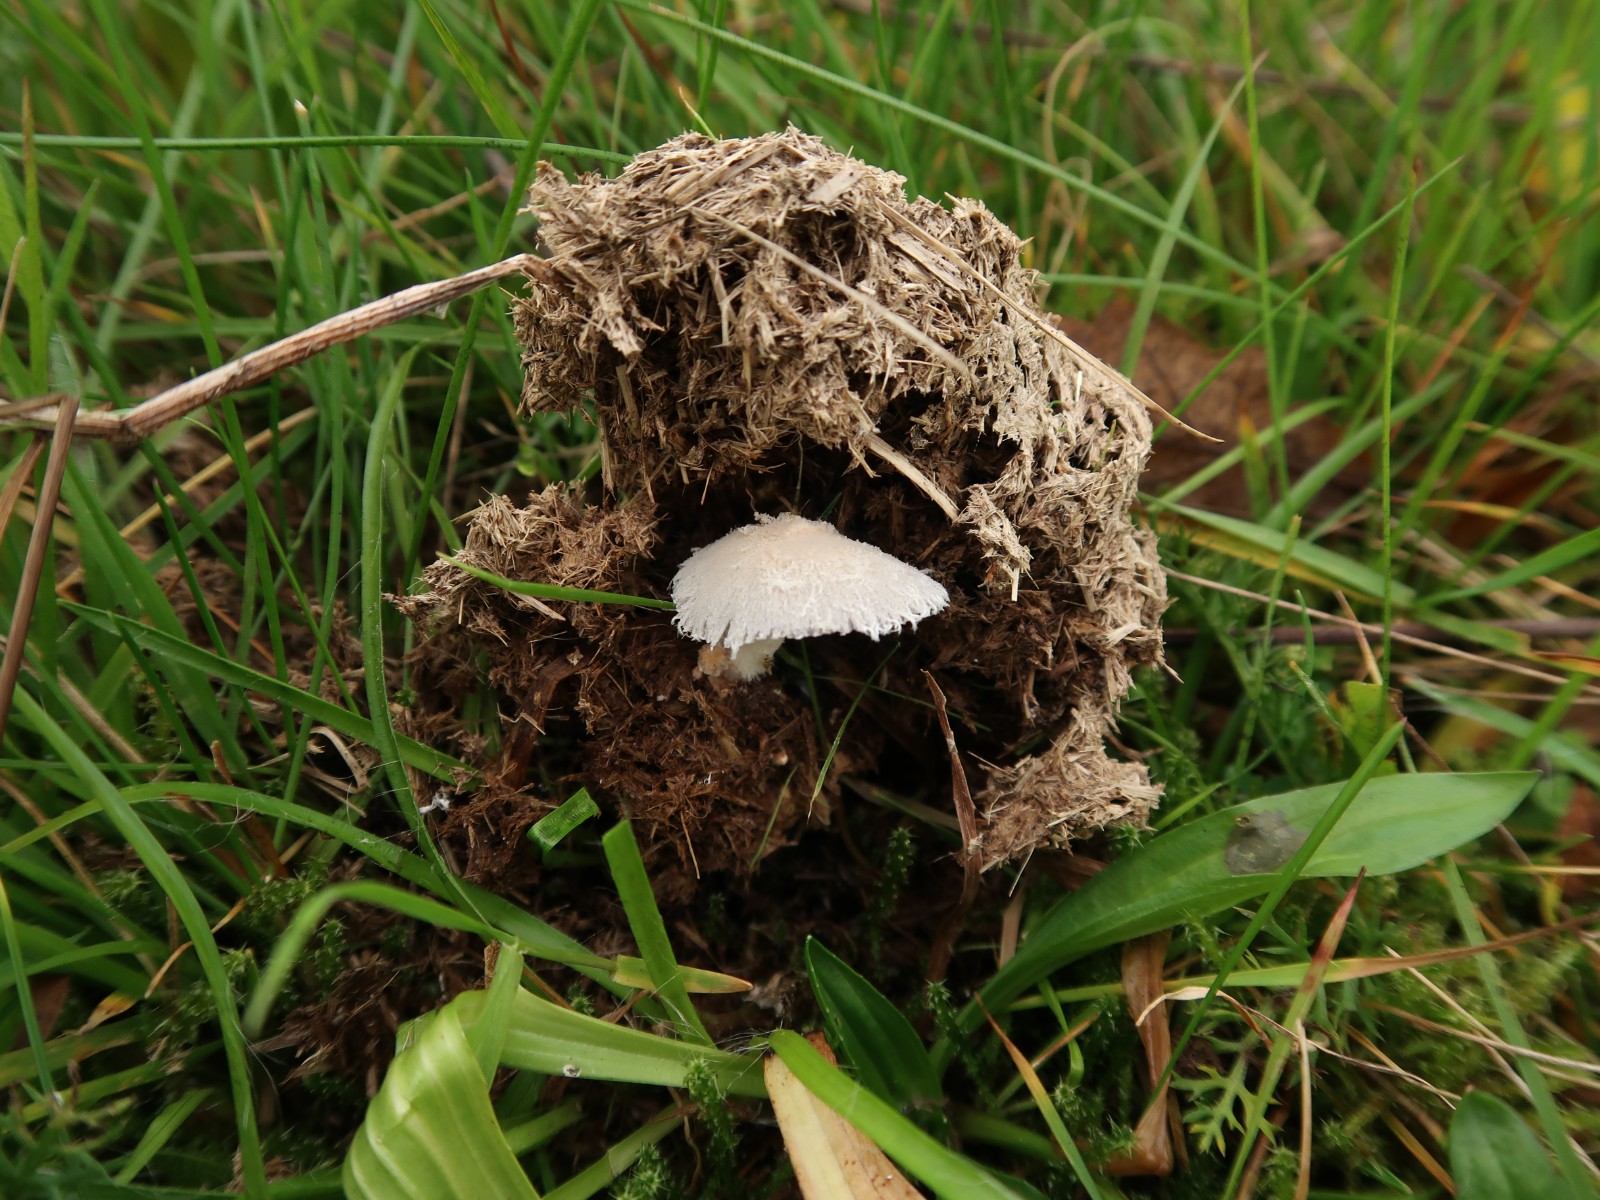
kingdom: Fungi
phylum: Basidiomycota
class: Agaricomycetes
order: Agaricales
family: Psathyrellaceae
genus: Coprinopsis
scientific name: Coprinopsis
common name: blækhat
